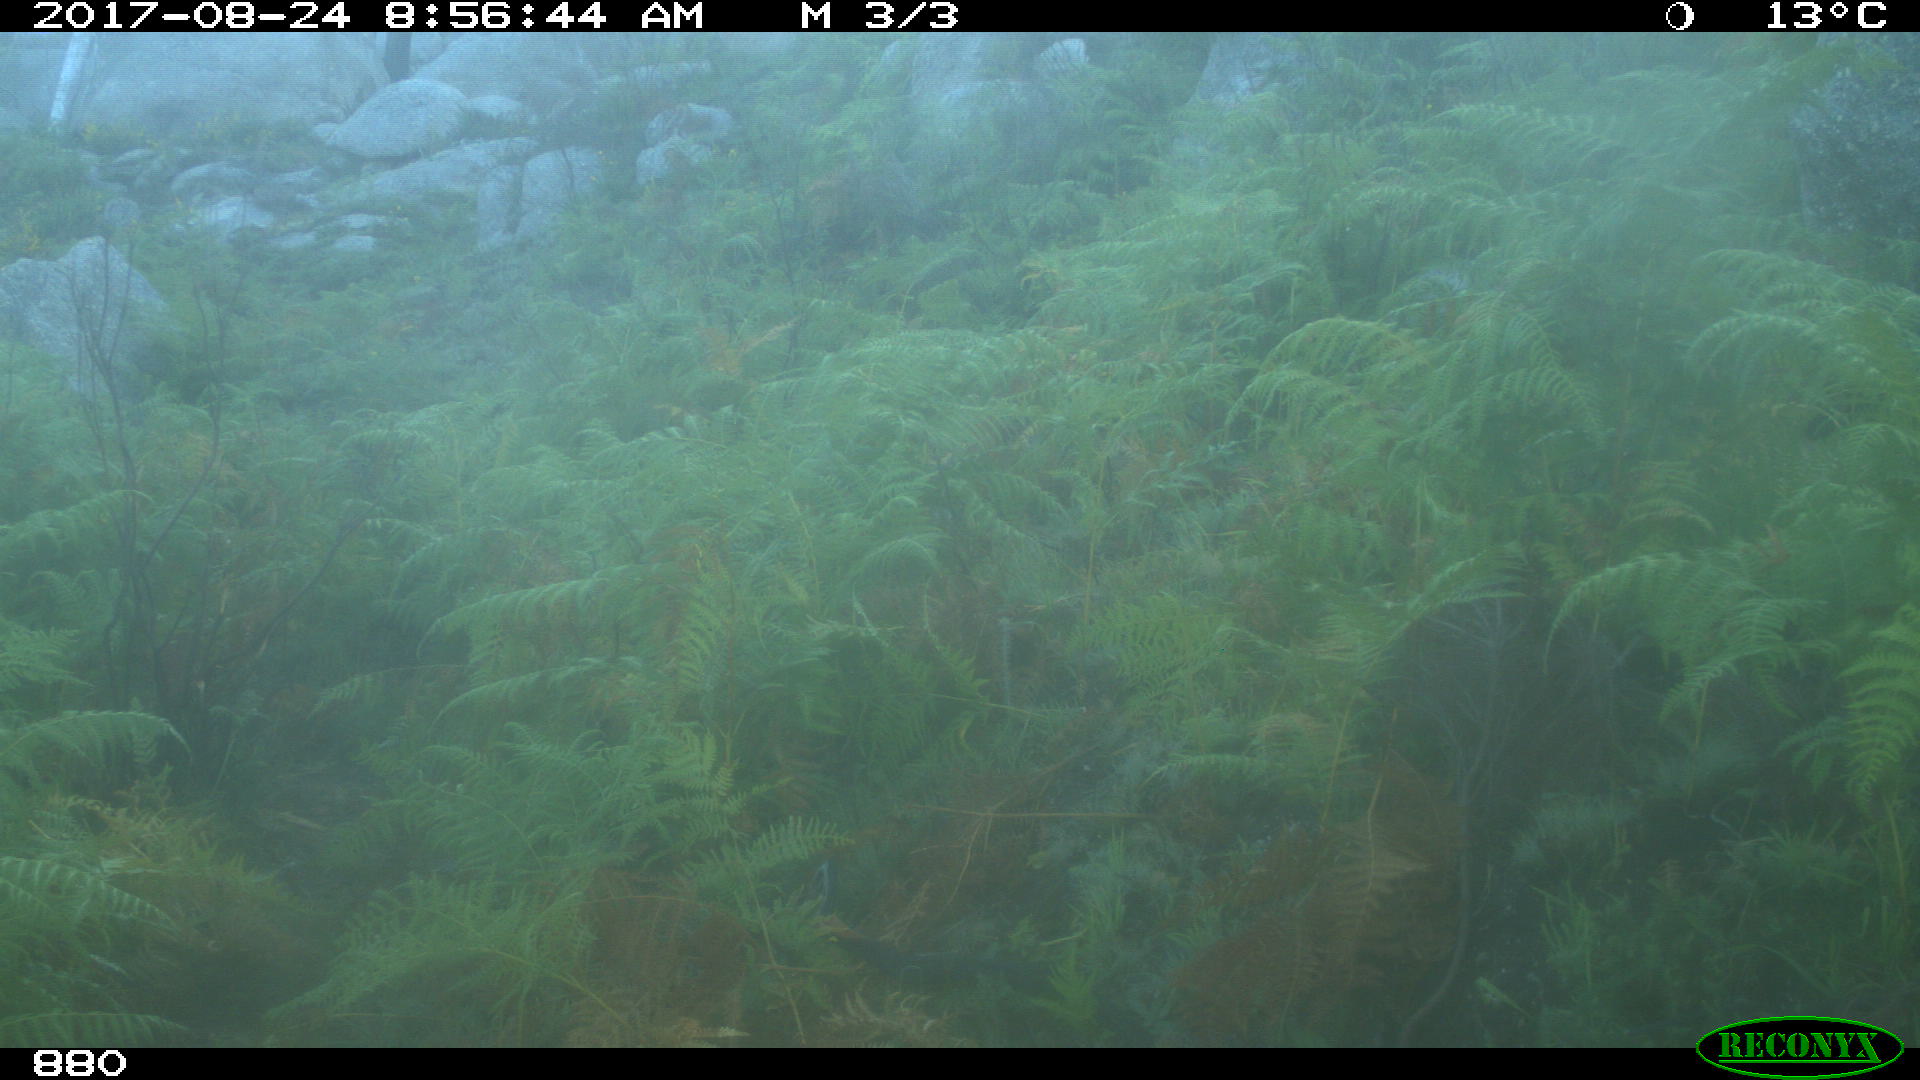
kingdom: Animalia
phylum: Chordata
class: Mammalia
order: Perissodactyla
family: Equidae
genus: Equus
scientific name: Equus caballus
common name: Horse
